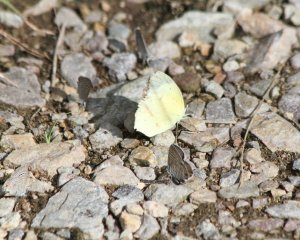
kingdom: Animalia
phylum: Arthropoda
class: Insecta
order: Lepidoptera
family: Pieridae
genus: Eurema
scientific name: Eurema mexicana
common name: Mexican Yellow
